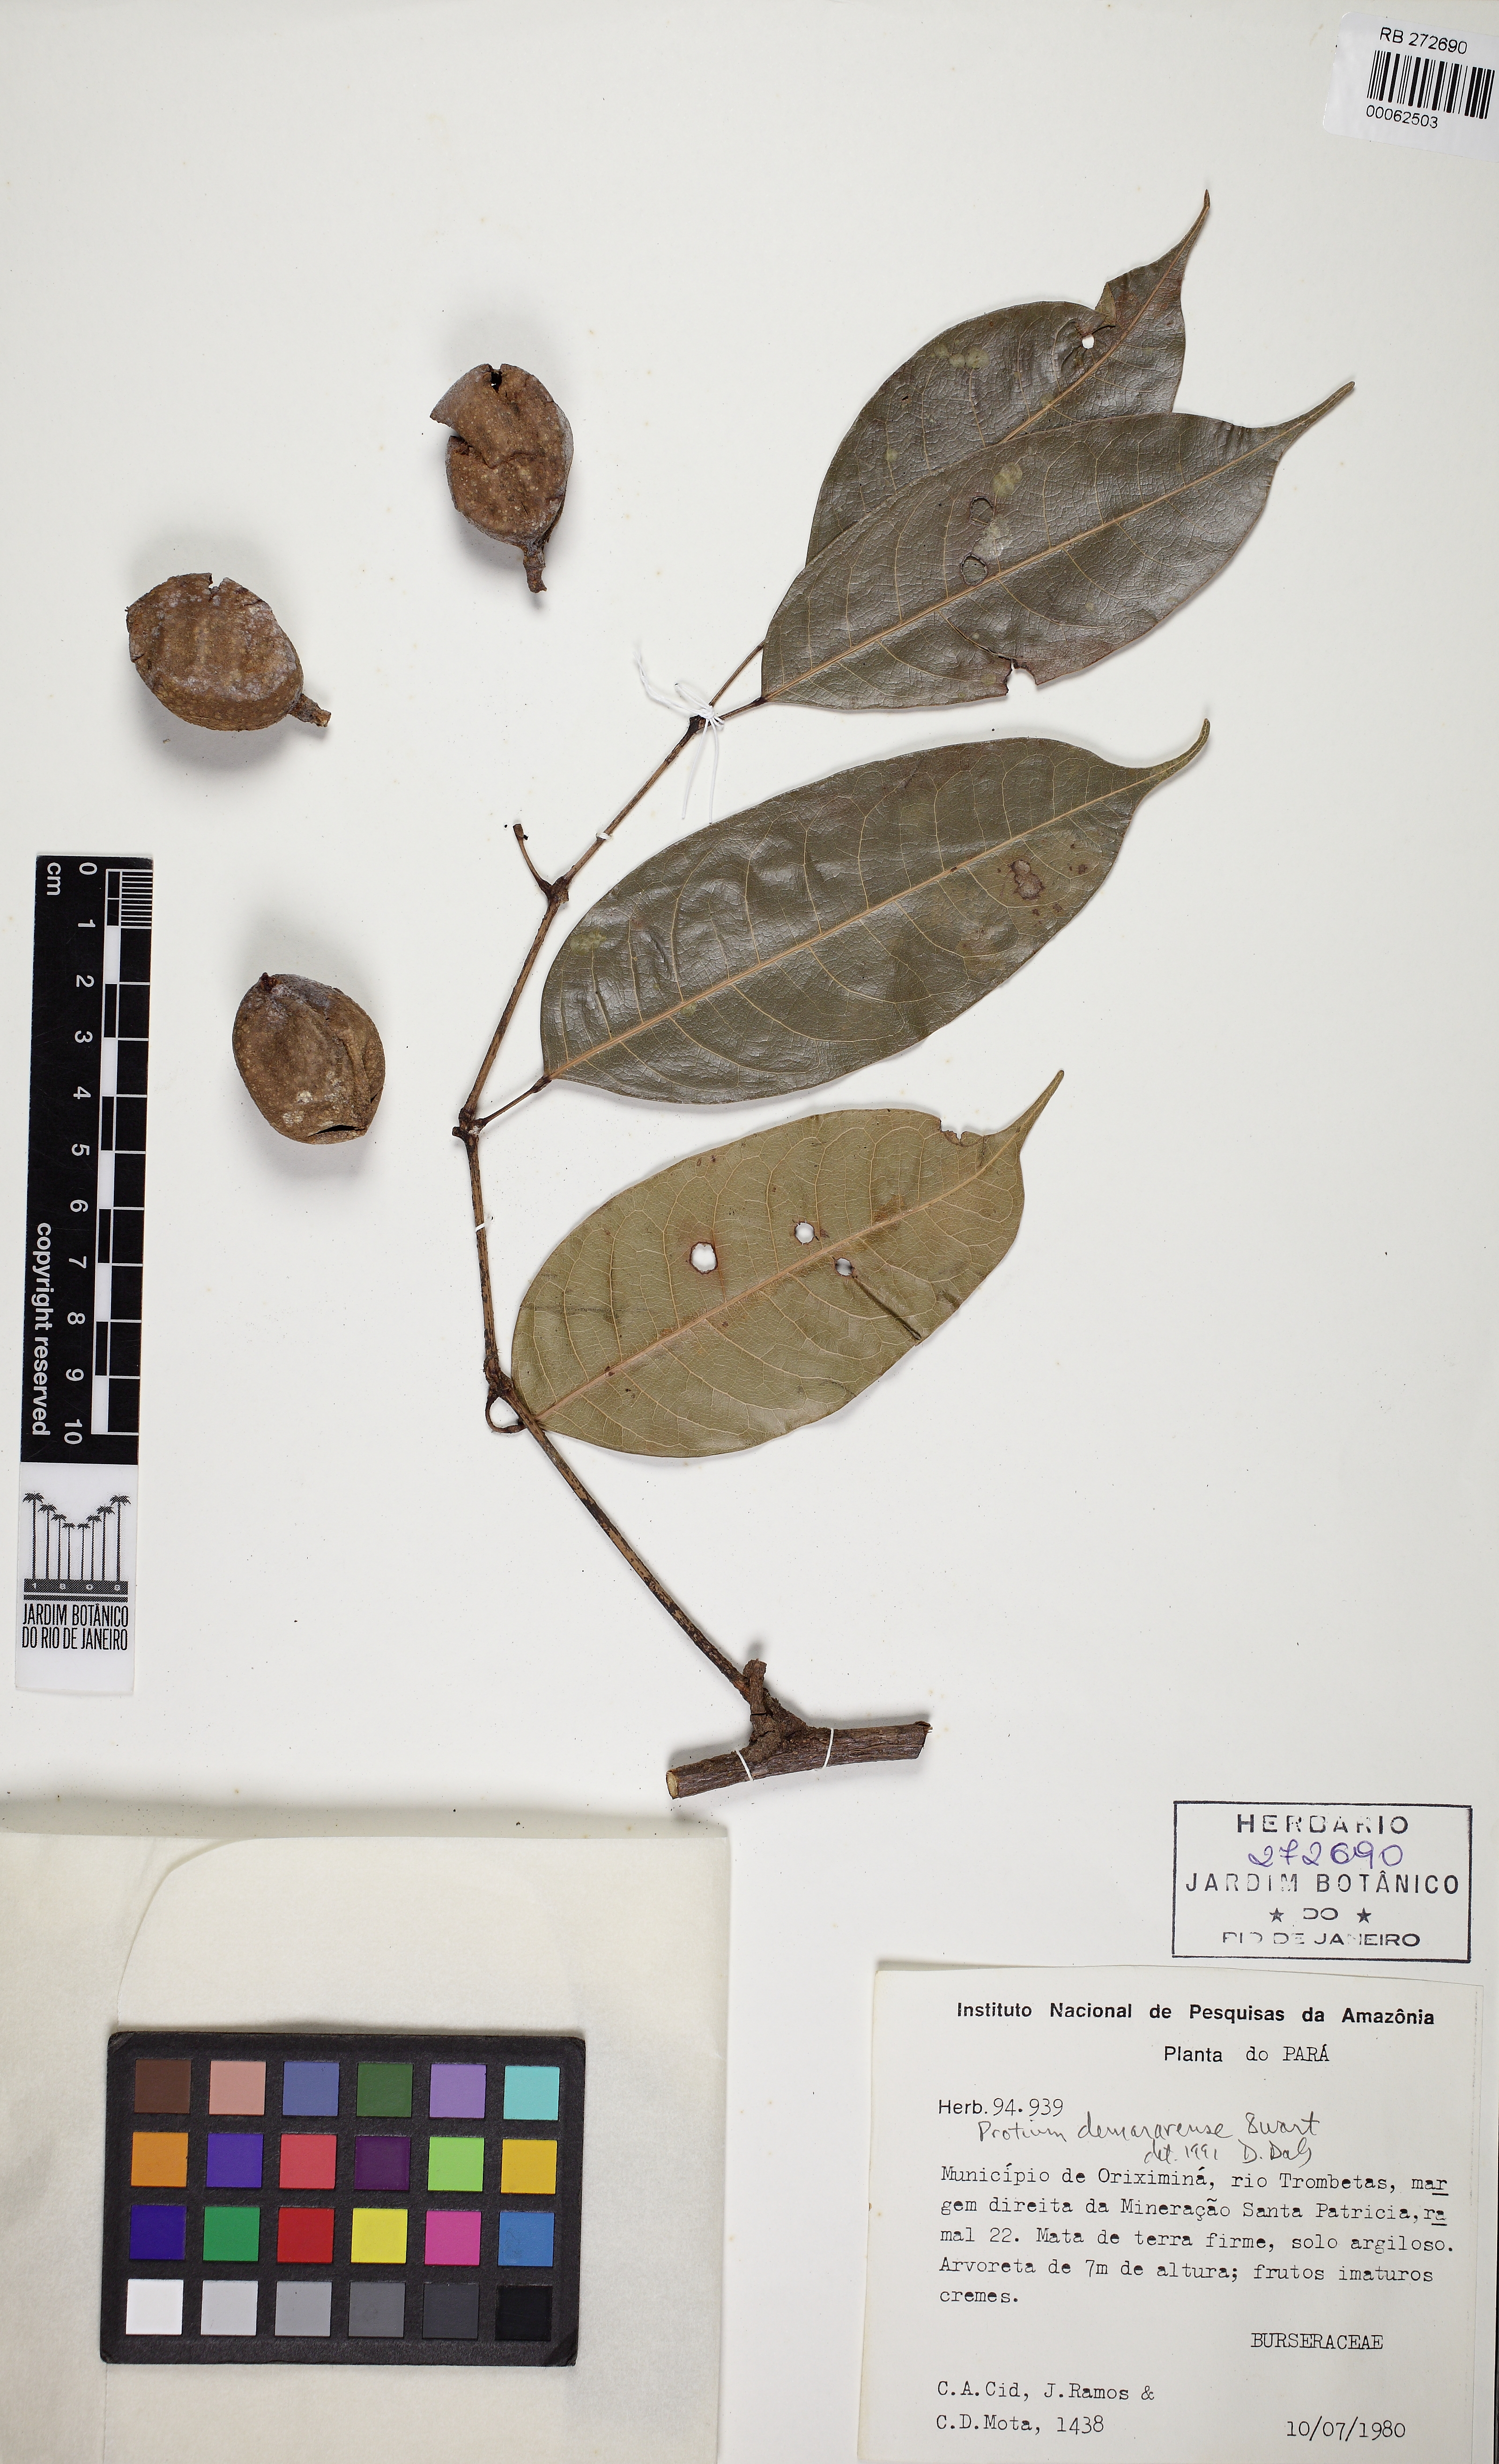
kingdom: Plantae
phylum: Tracheophyta
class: Magnoliopsida
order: Sapindales
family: Burseraceae
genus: Protium
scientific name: Protium demerarense
